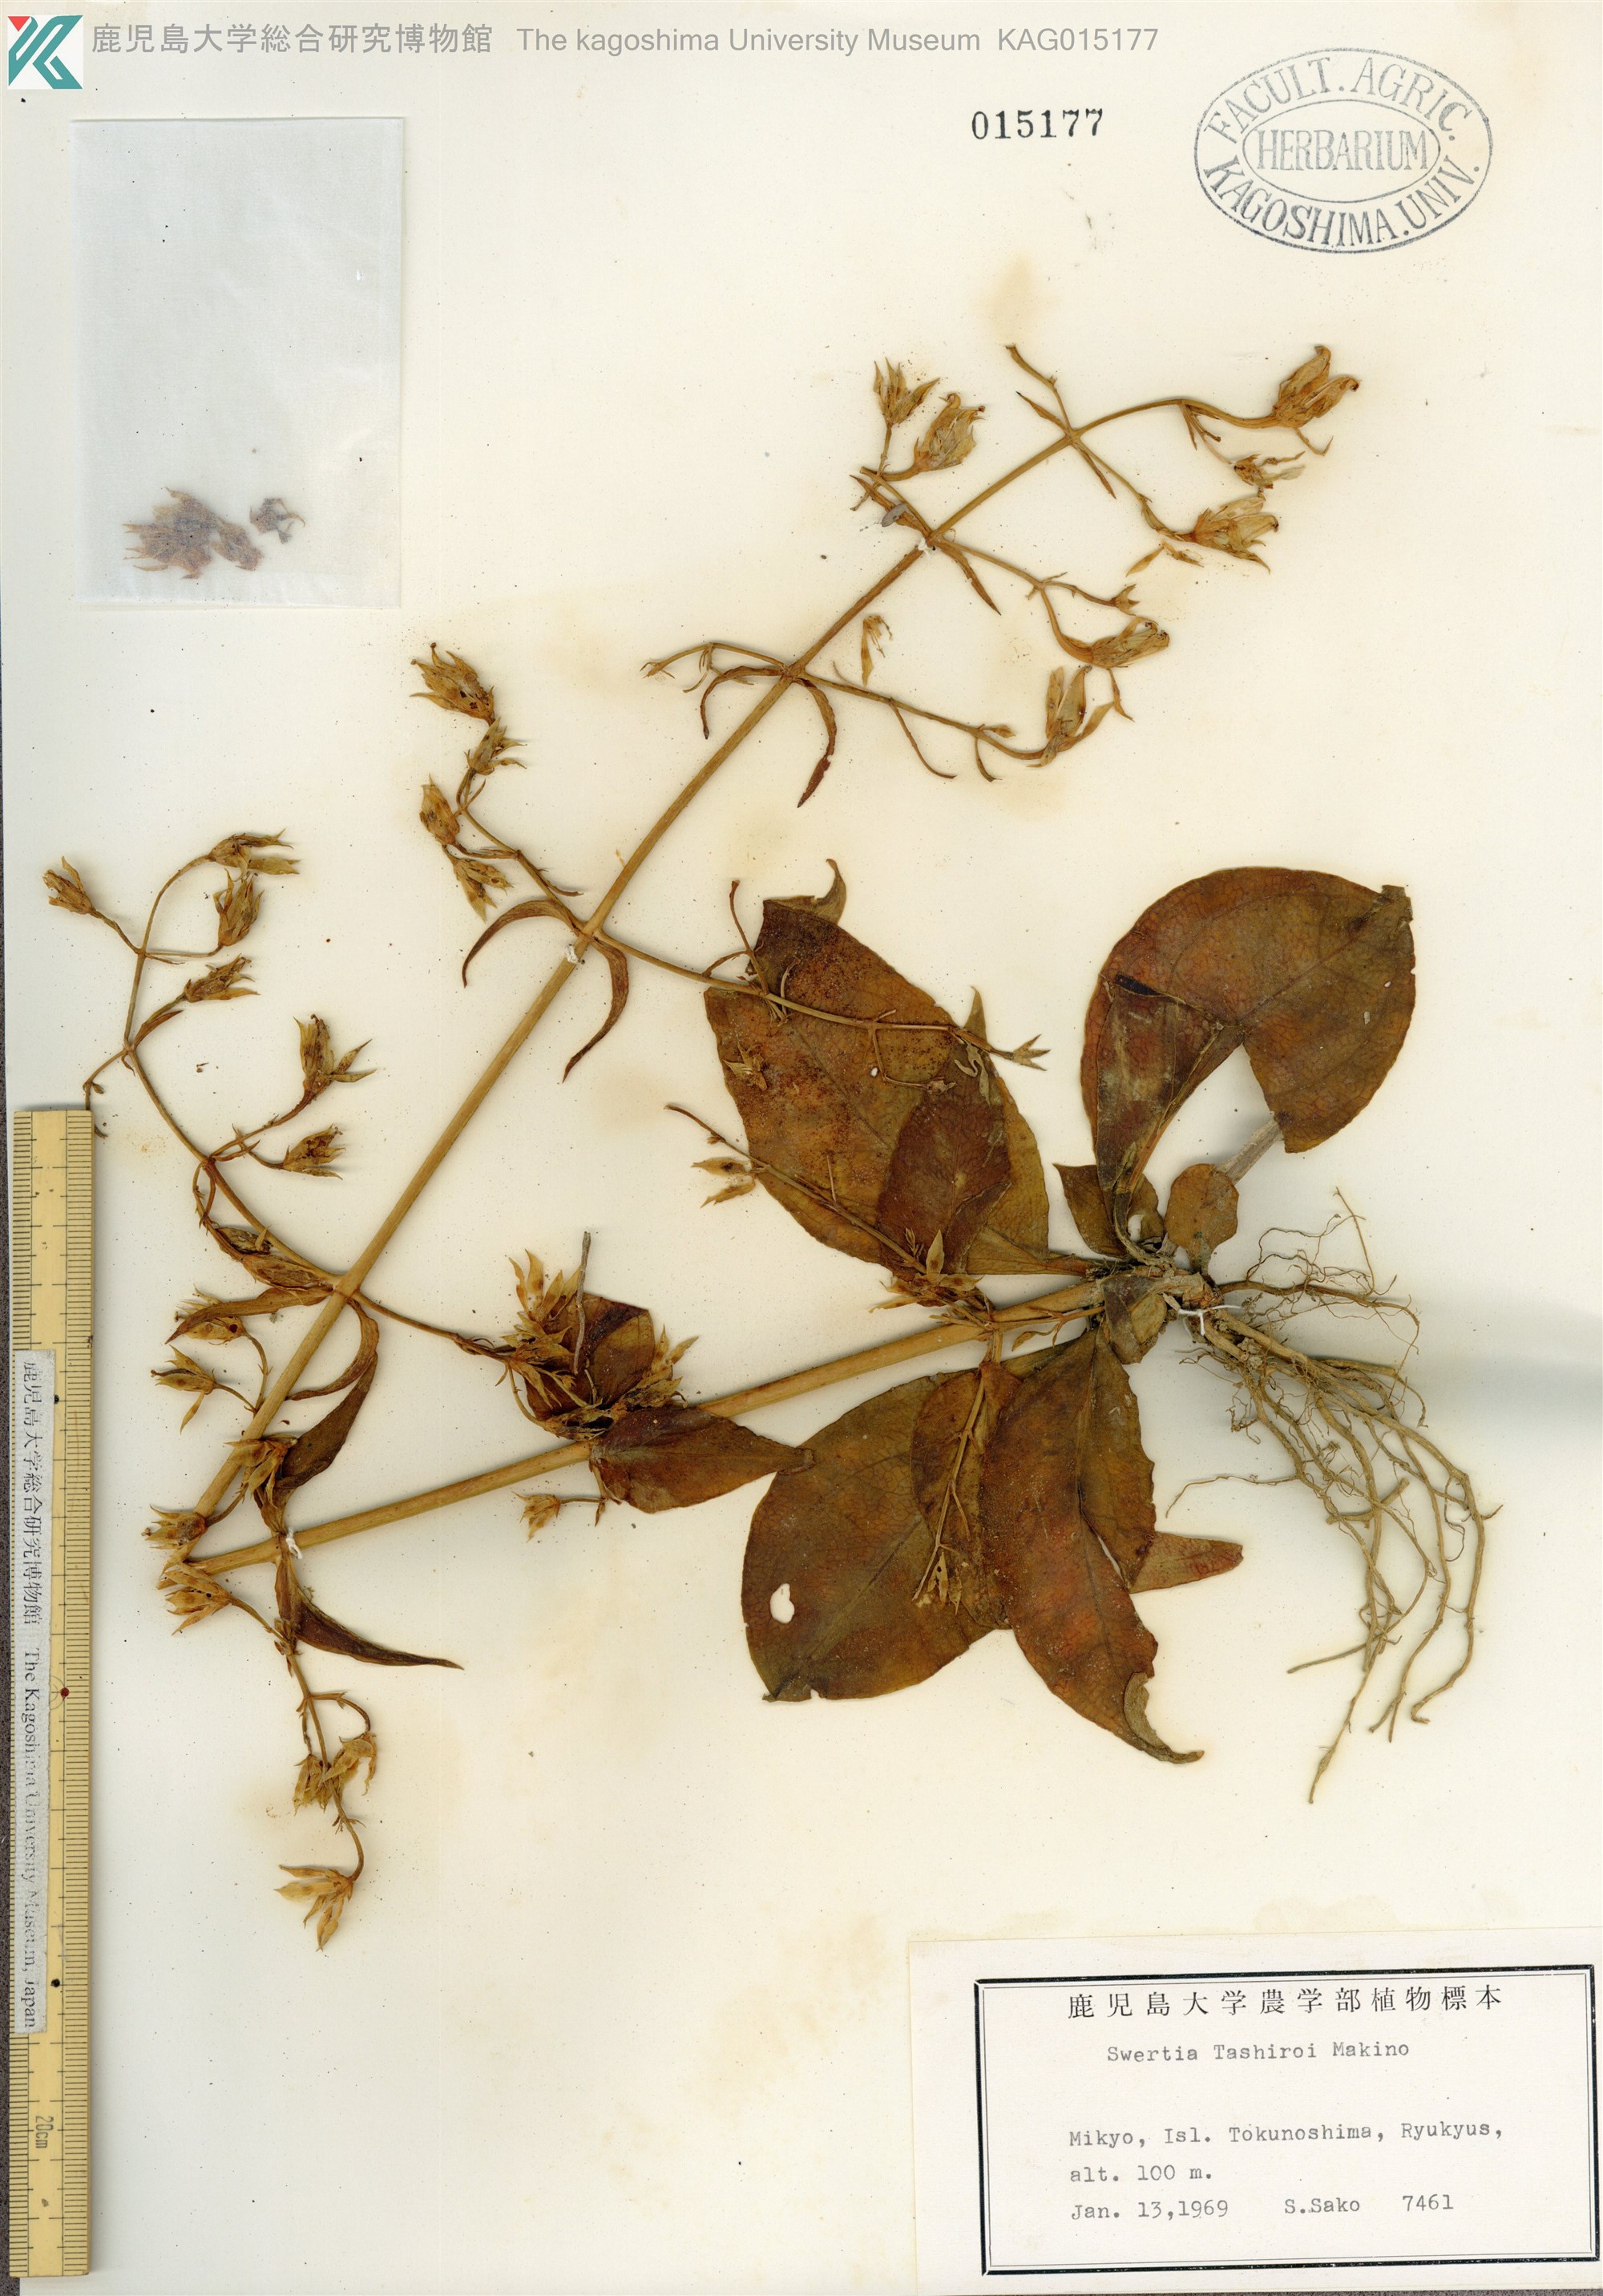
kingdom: Plantae
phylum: Tracheophyta
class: Magnoliopsida
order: Gentianales
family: Gentianaceae
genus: Swertia
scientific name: Swertia tashiroi
